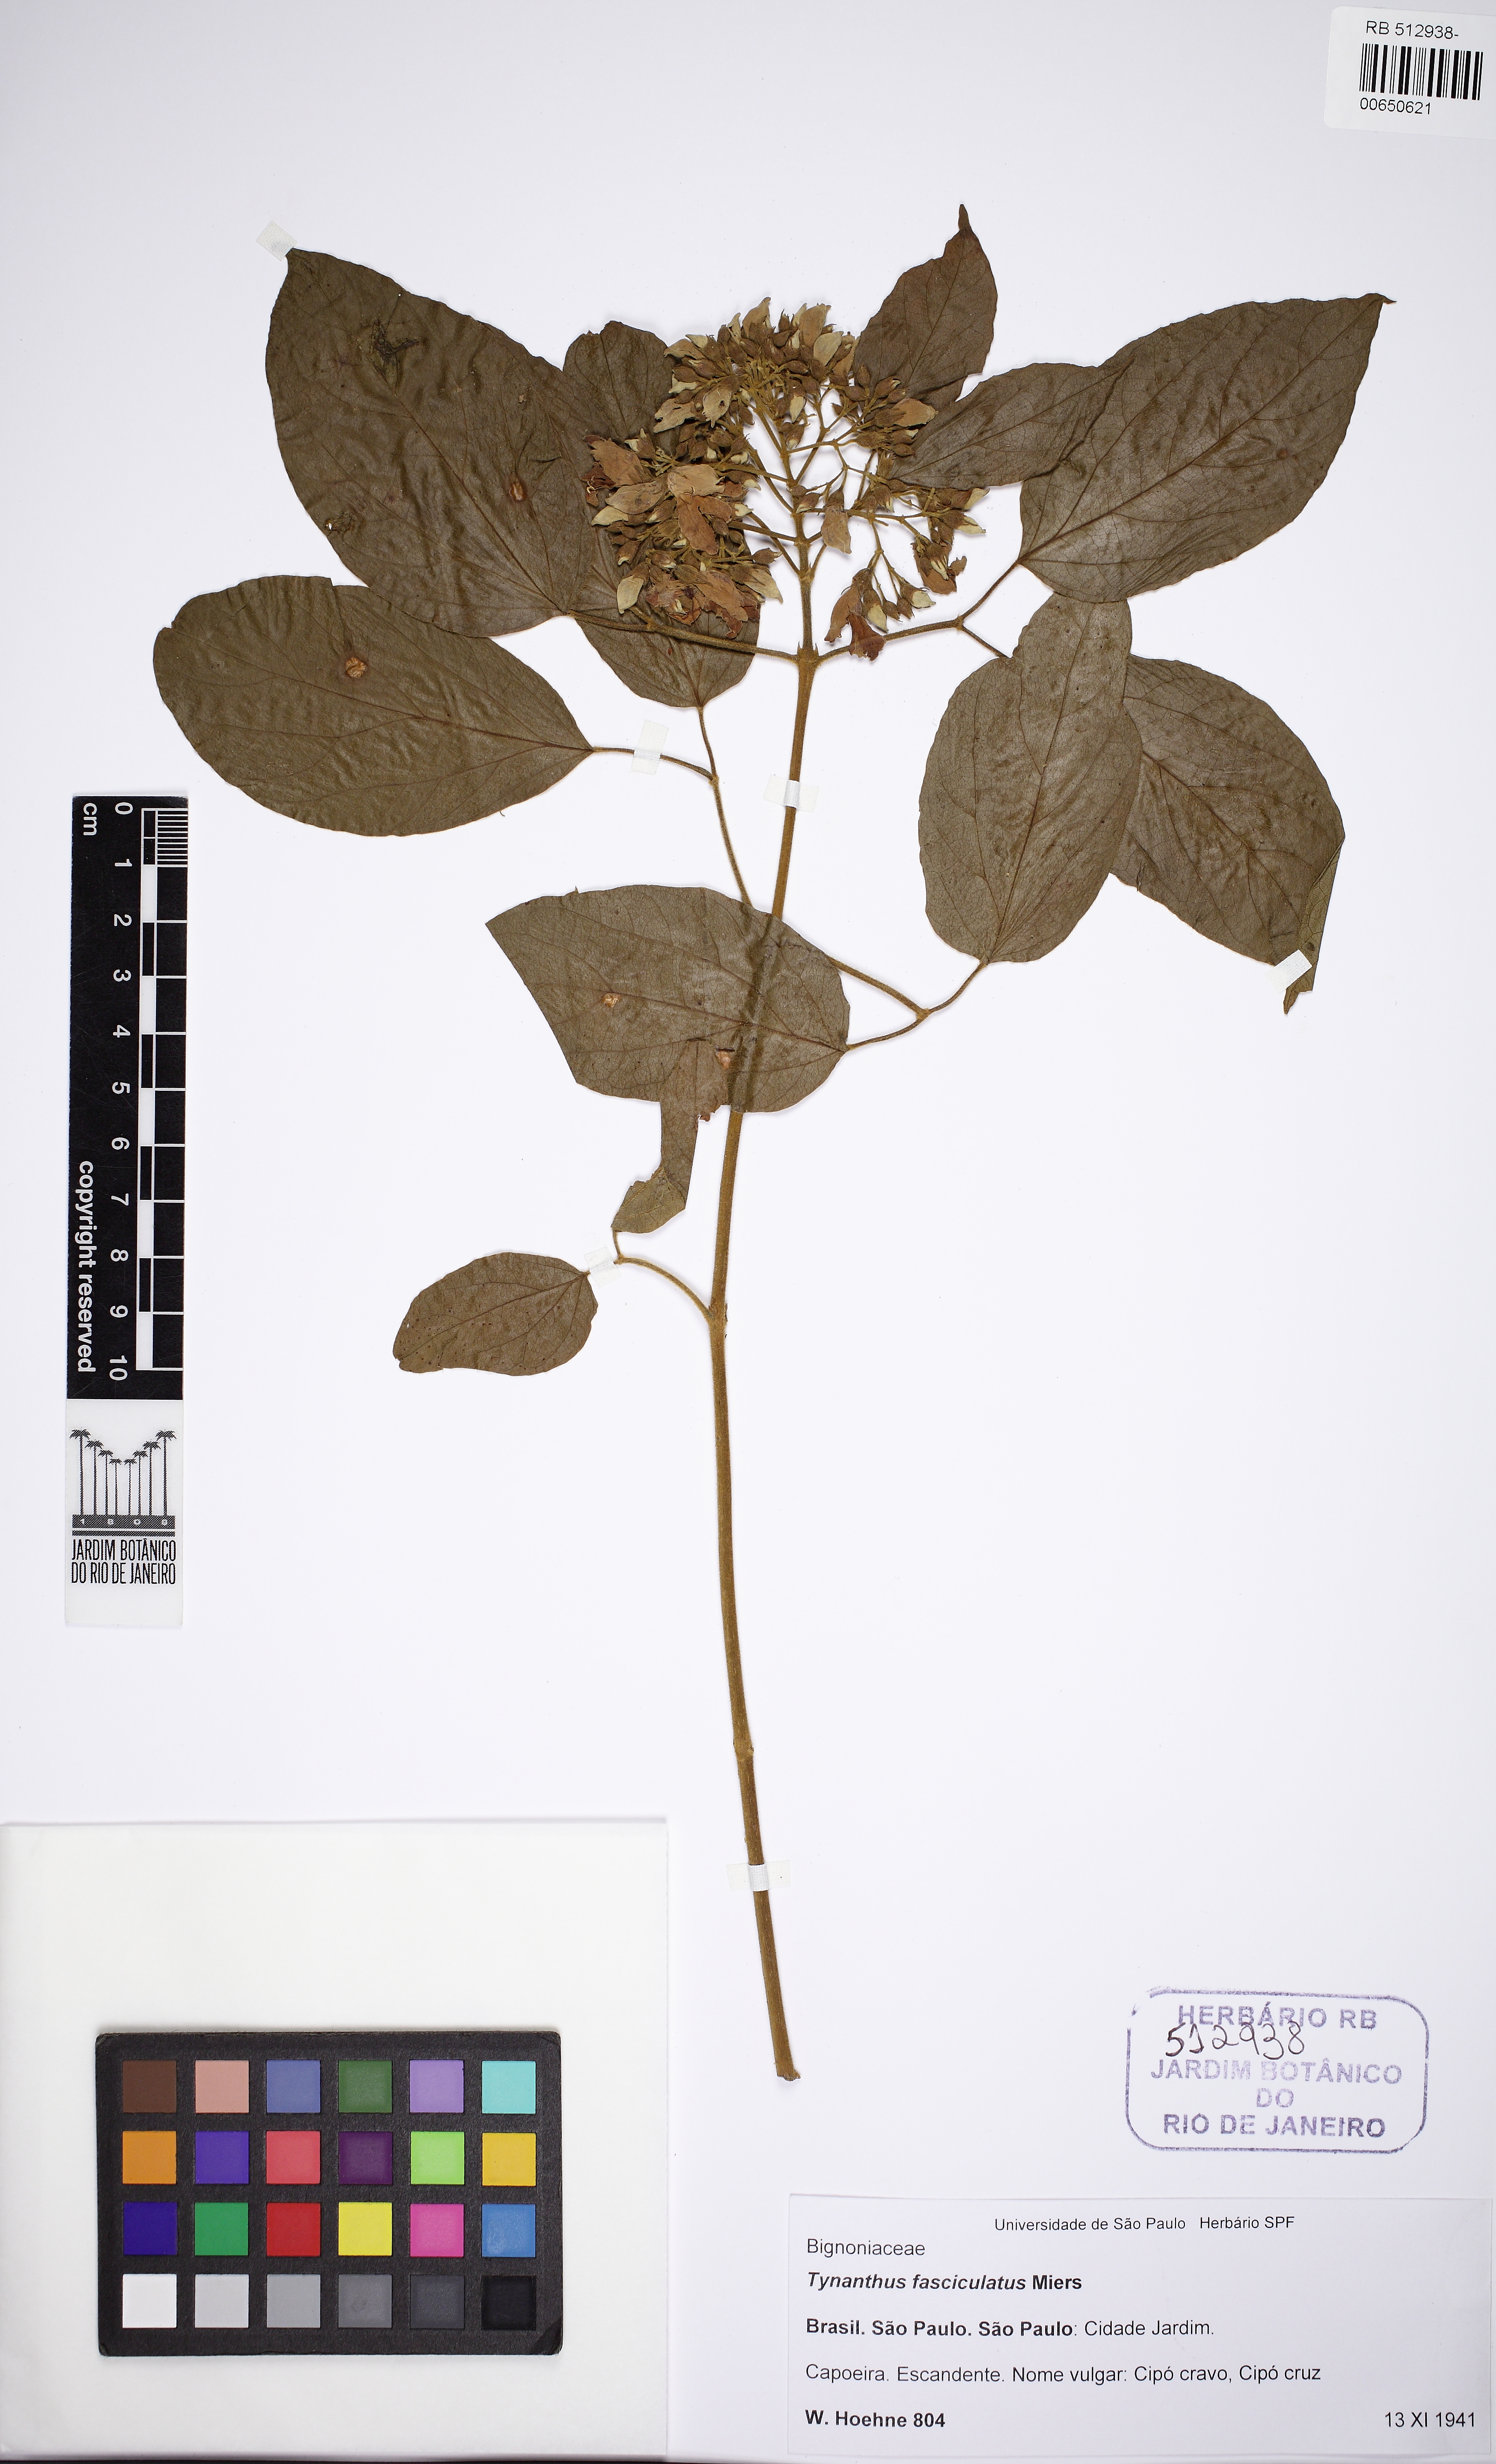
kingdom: Plantae
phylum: Tracheophyta
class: Magnoliopsida
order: Lamiales
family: Bignoniaceae
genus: Tynanthus
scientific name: Tynanthus fasciculatus
